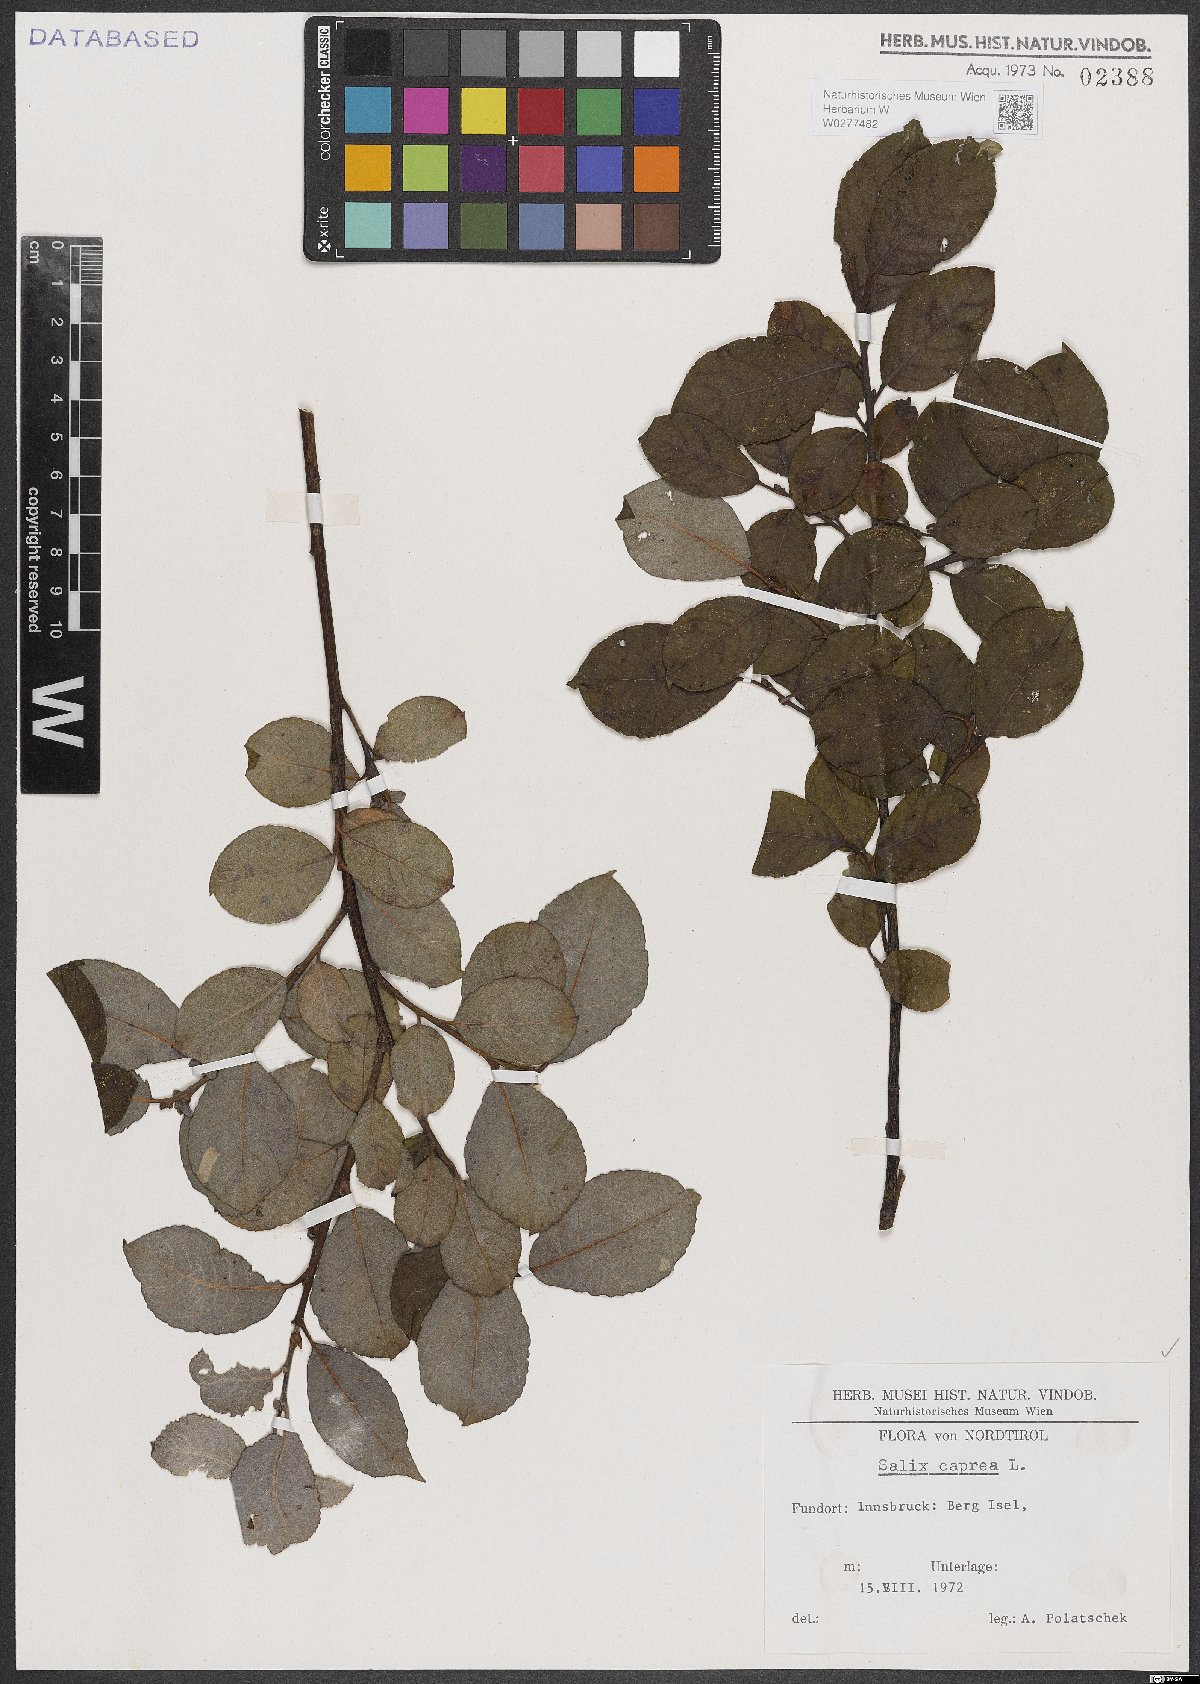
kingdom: Plantae
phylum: Tracheophyta
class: Magnoliopsida
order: Malpighiales
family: Salicaceae
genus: Salix
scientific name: Salix caprea
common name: Goat willow
